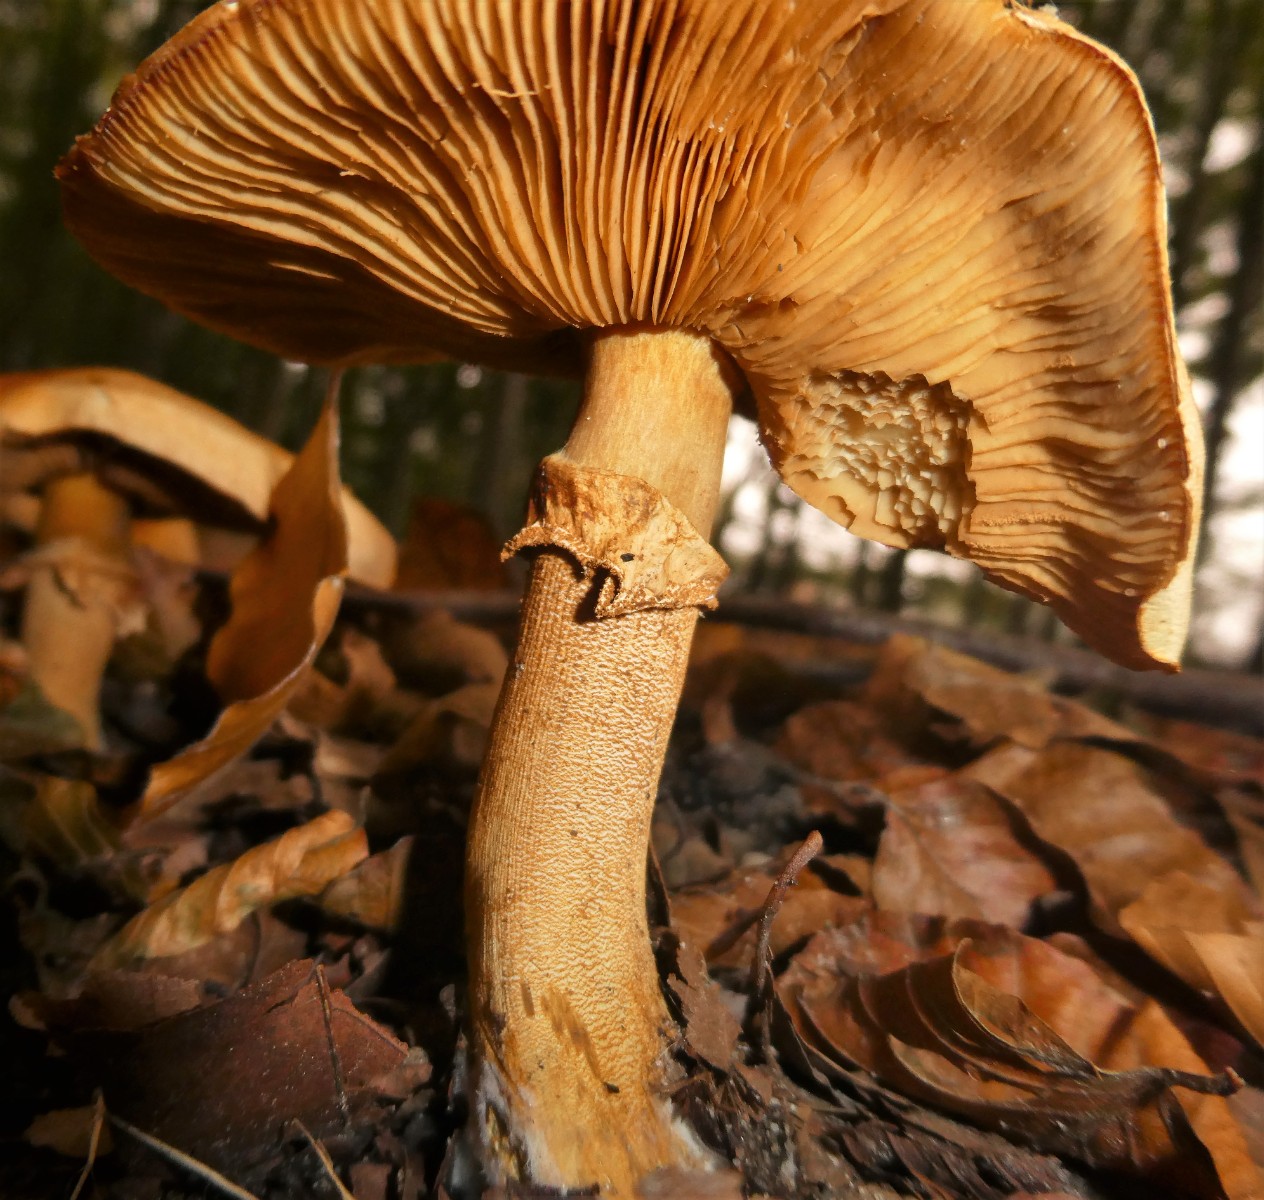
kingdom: Fungi
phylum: Basidiomycota
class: Agaricomycetes
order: Agaricales
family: Tricholomataceae
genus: Phaeolepiota
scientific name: Phaeolepiota aurea
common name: gyldenhat
